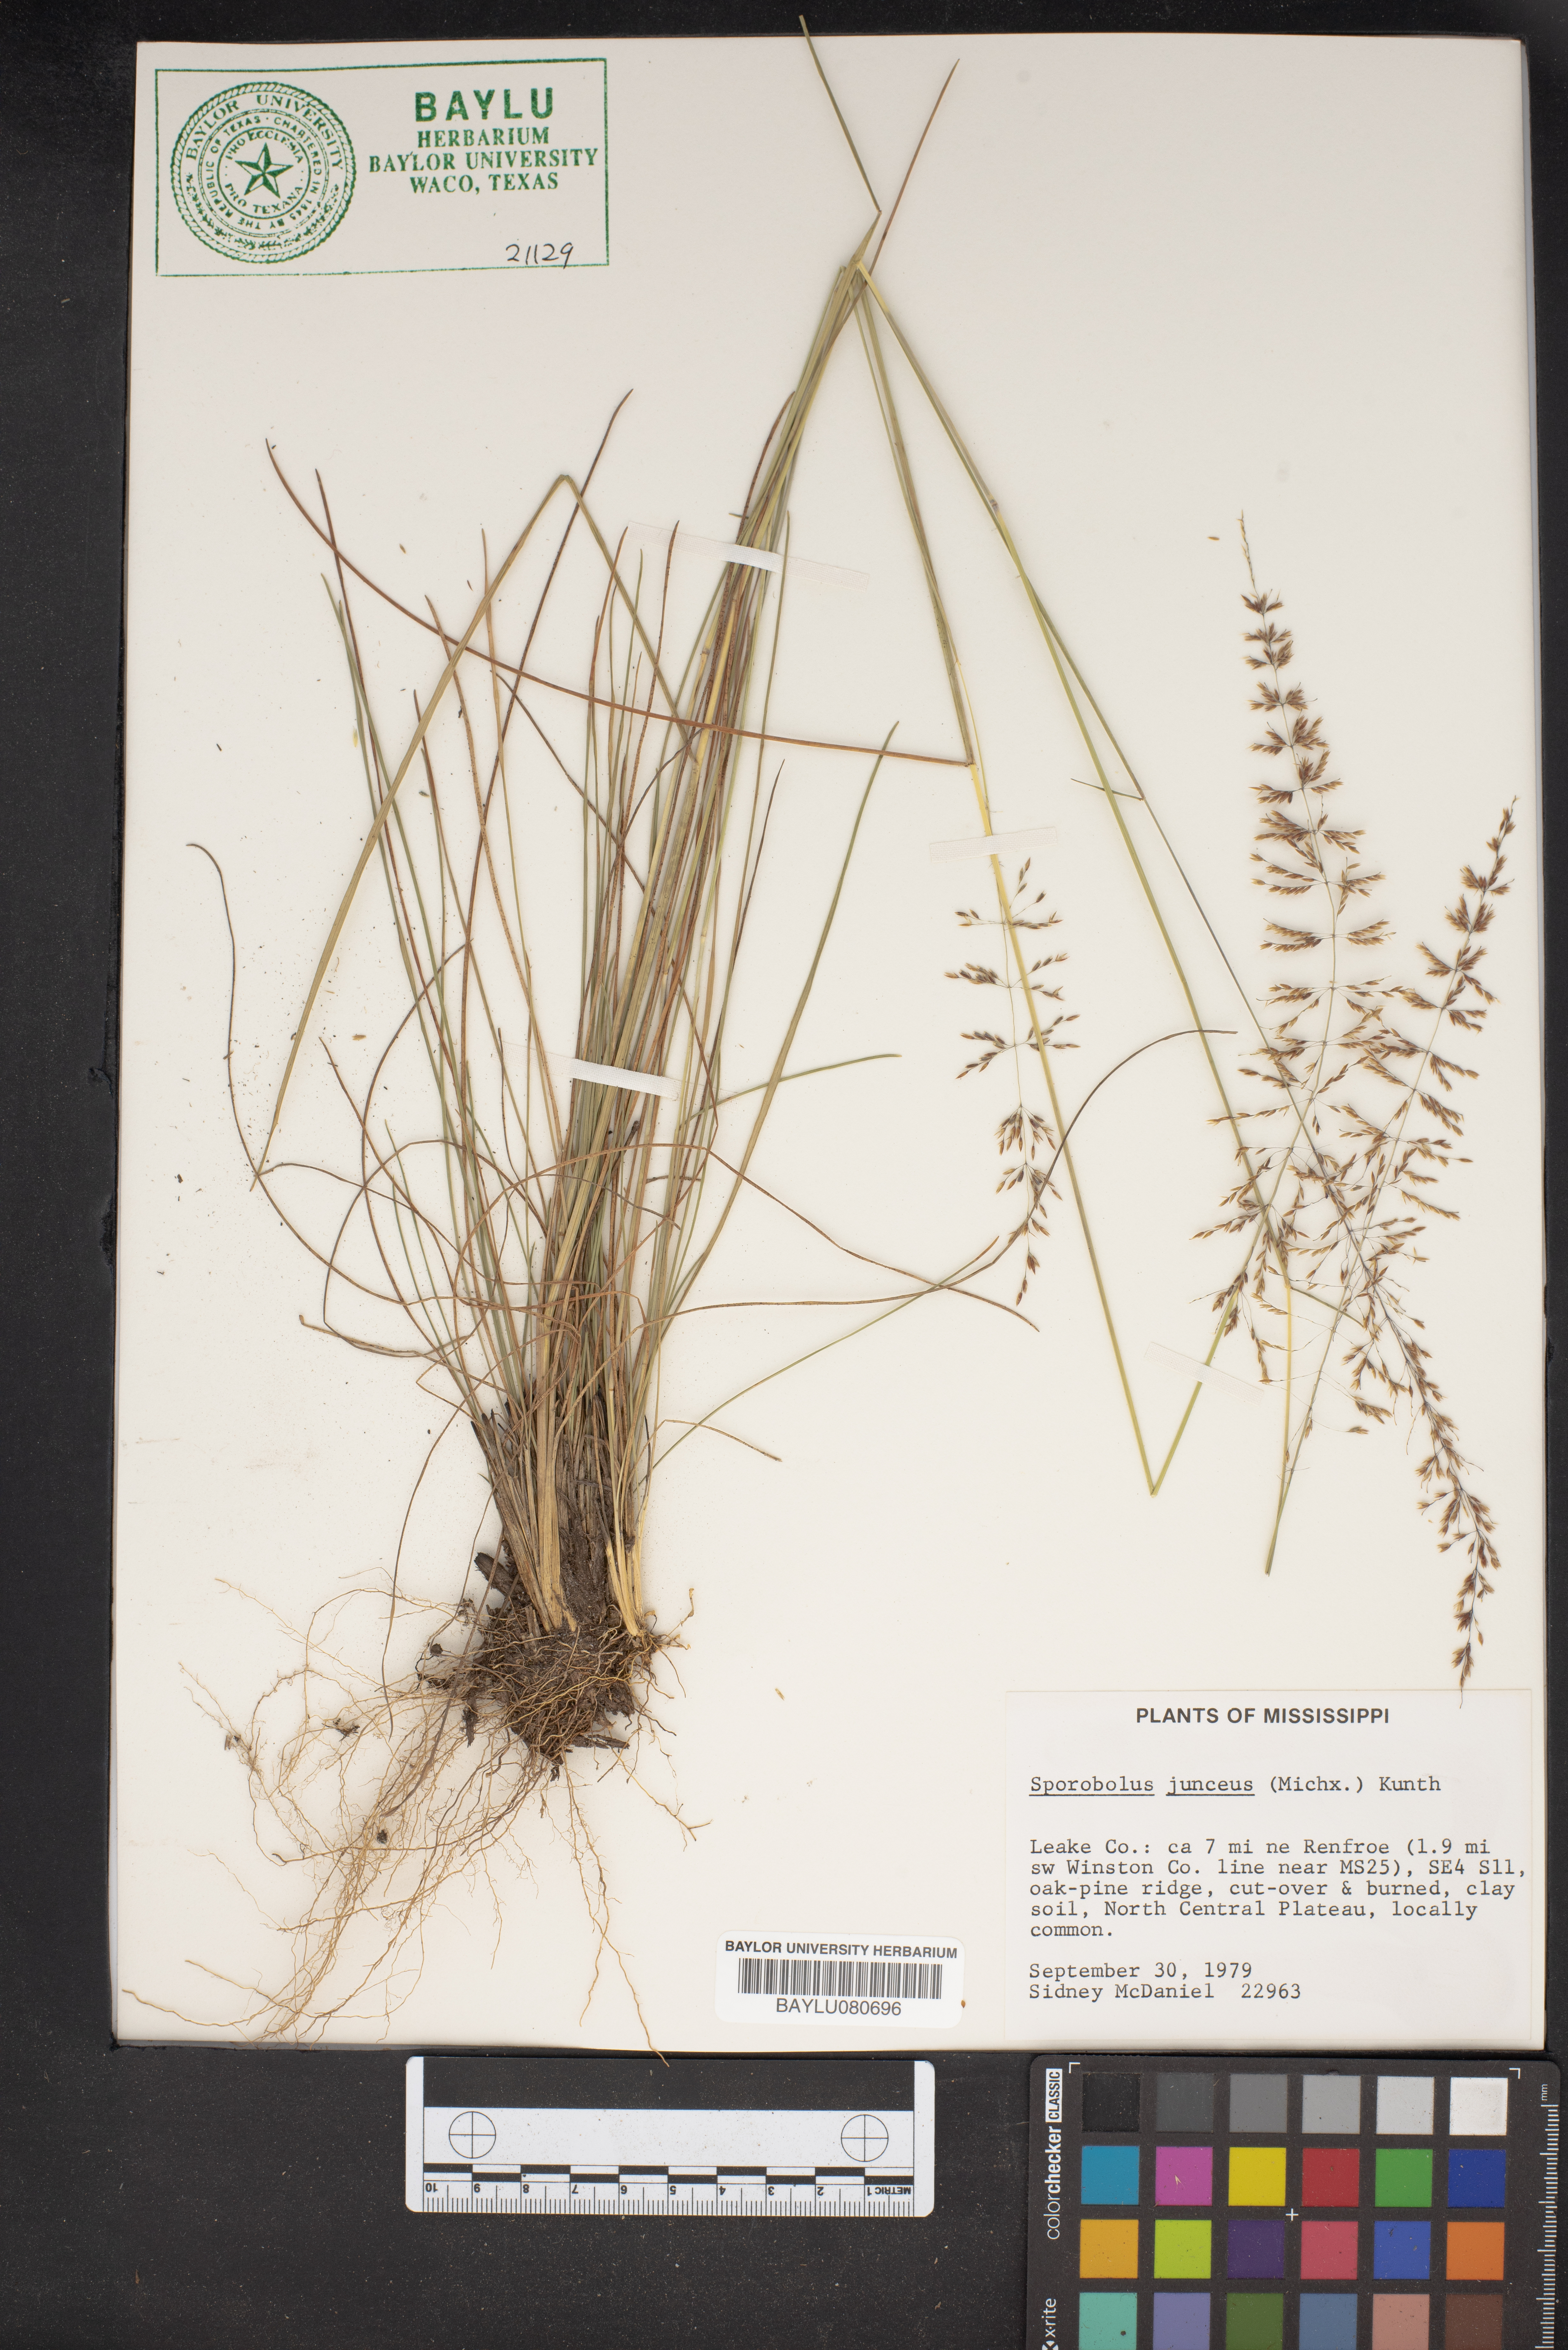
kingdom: Plantae
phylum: Tracheophyta
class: Liliopsida
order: Poales
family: Poaceae
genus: Sporobolus
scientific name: Sporobolus junceus
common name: Lizard grass
